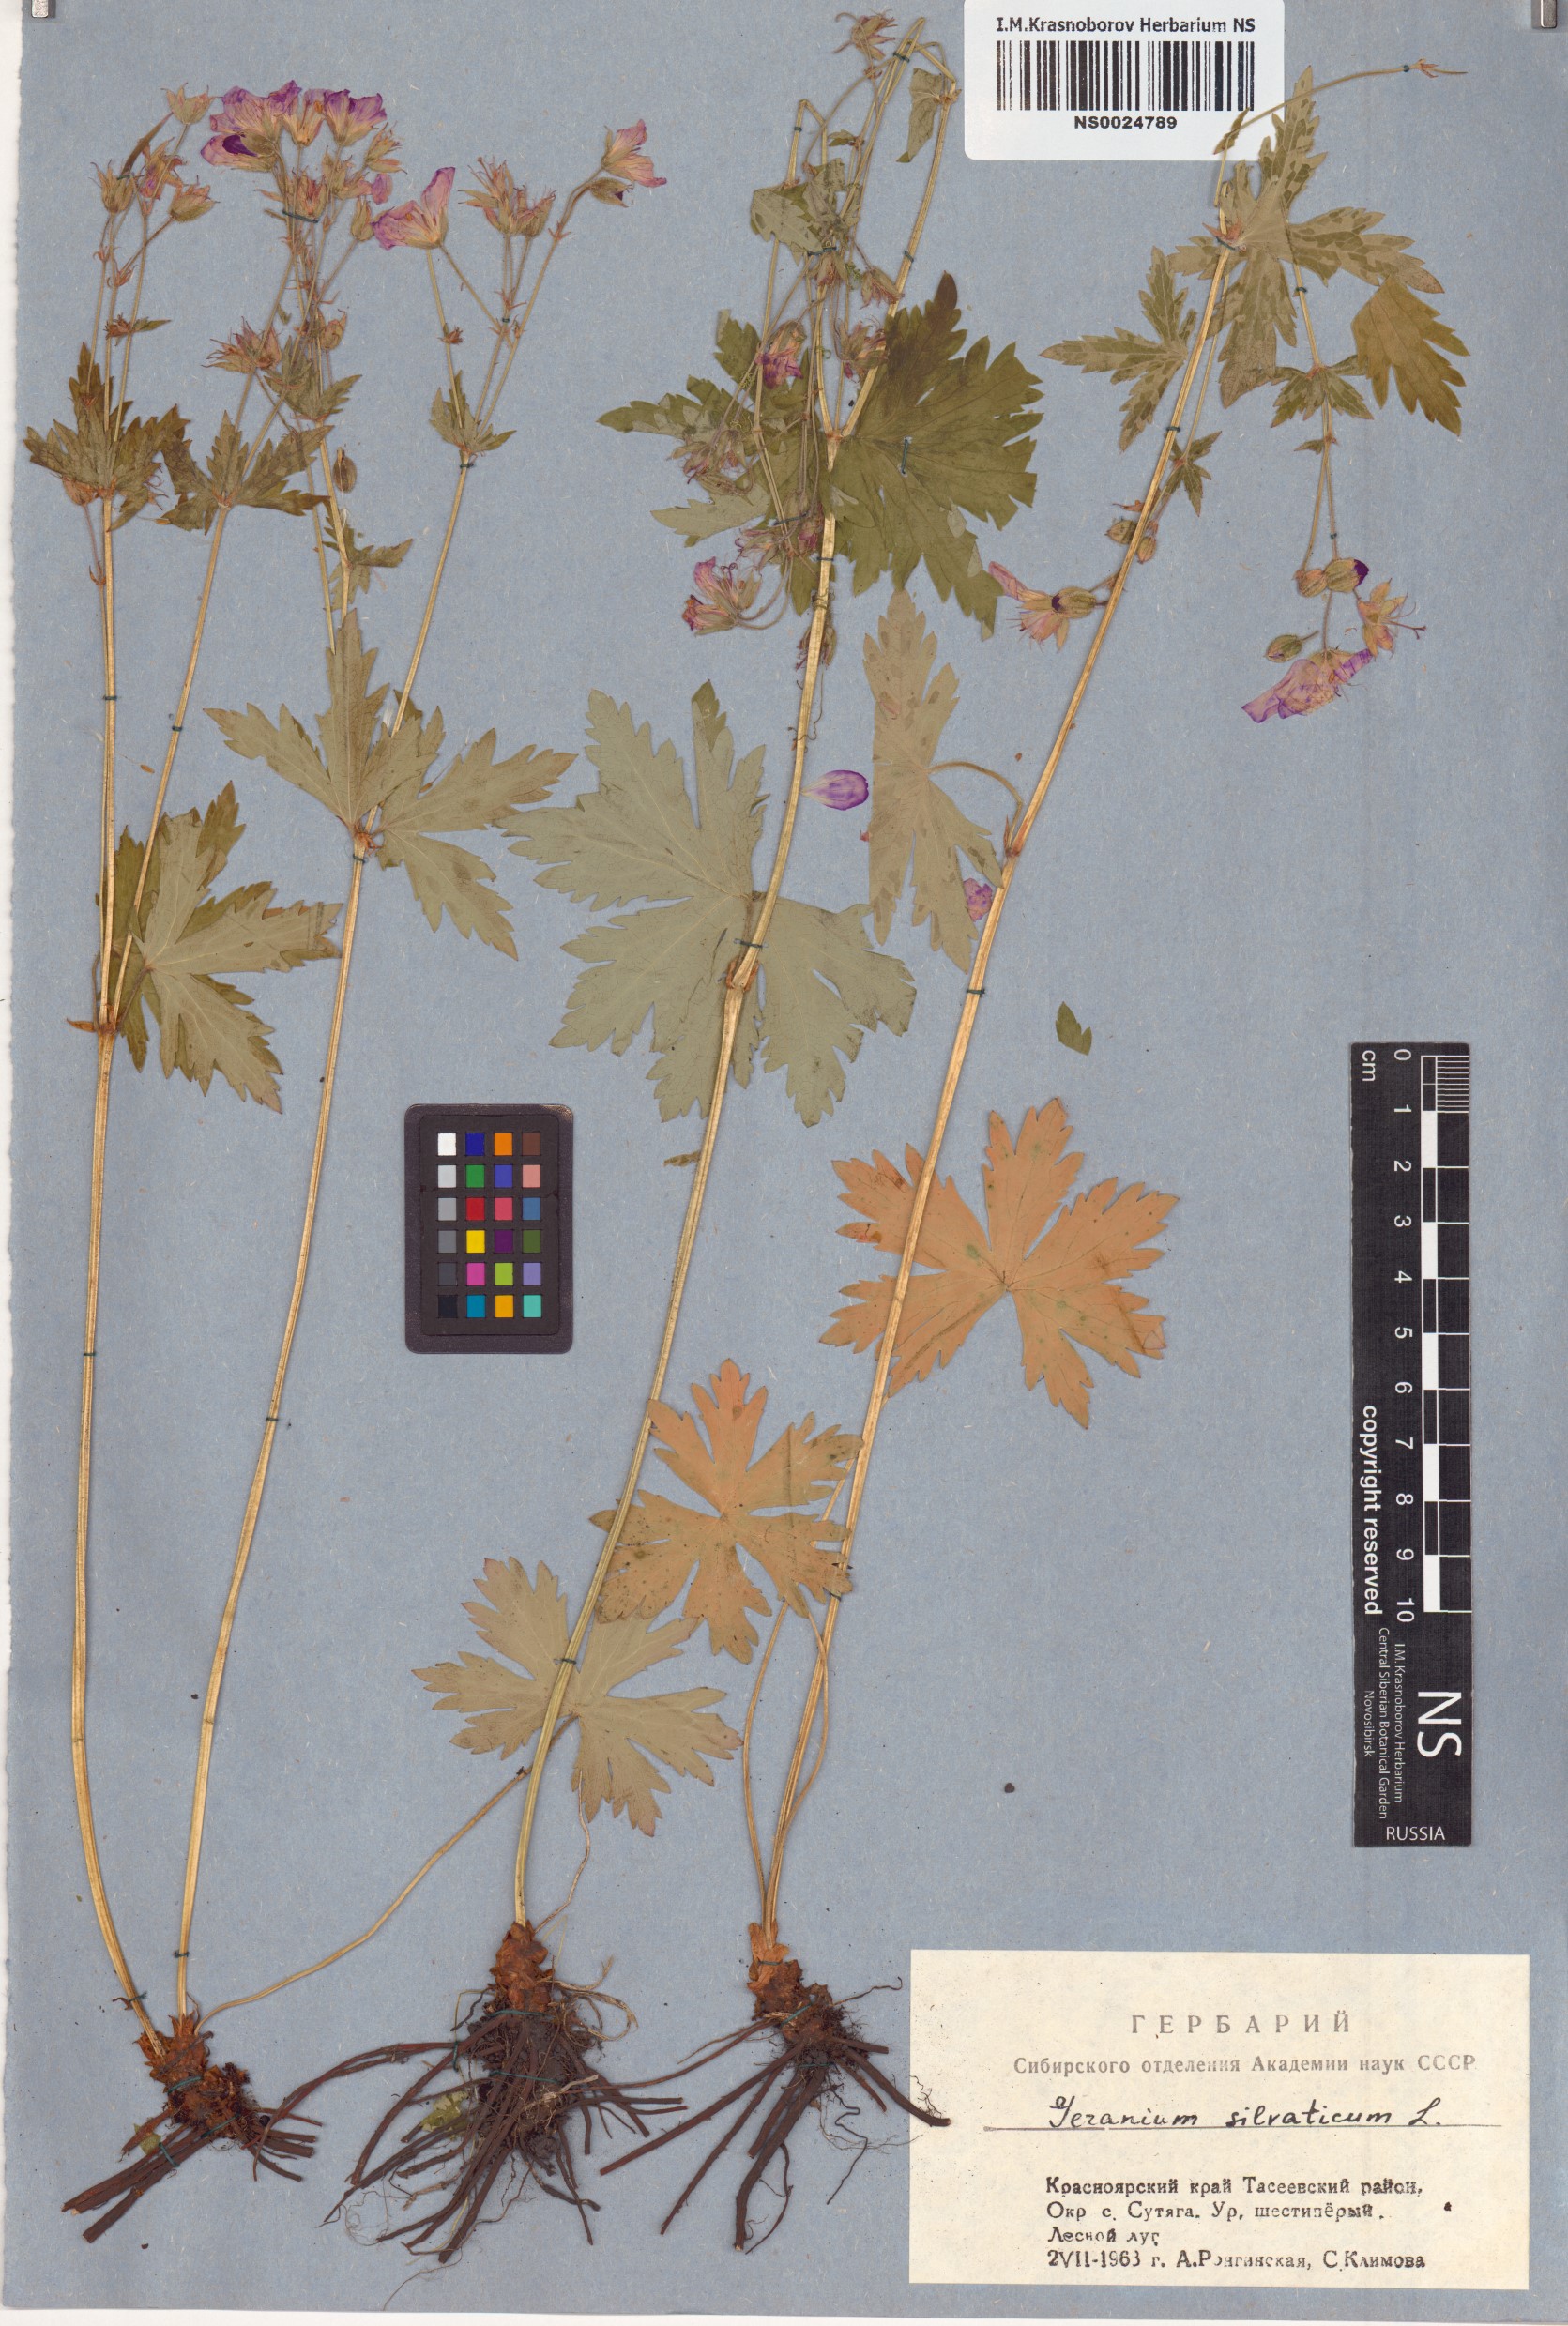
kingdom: Plantae
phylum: Tracheophyta
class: Magnoliopsida
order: Geraniales
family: Geraniaceae
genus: Geranium
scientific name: Geranium sylvaticum
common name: Wood crane's-bill
